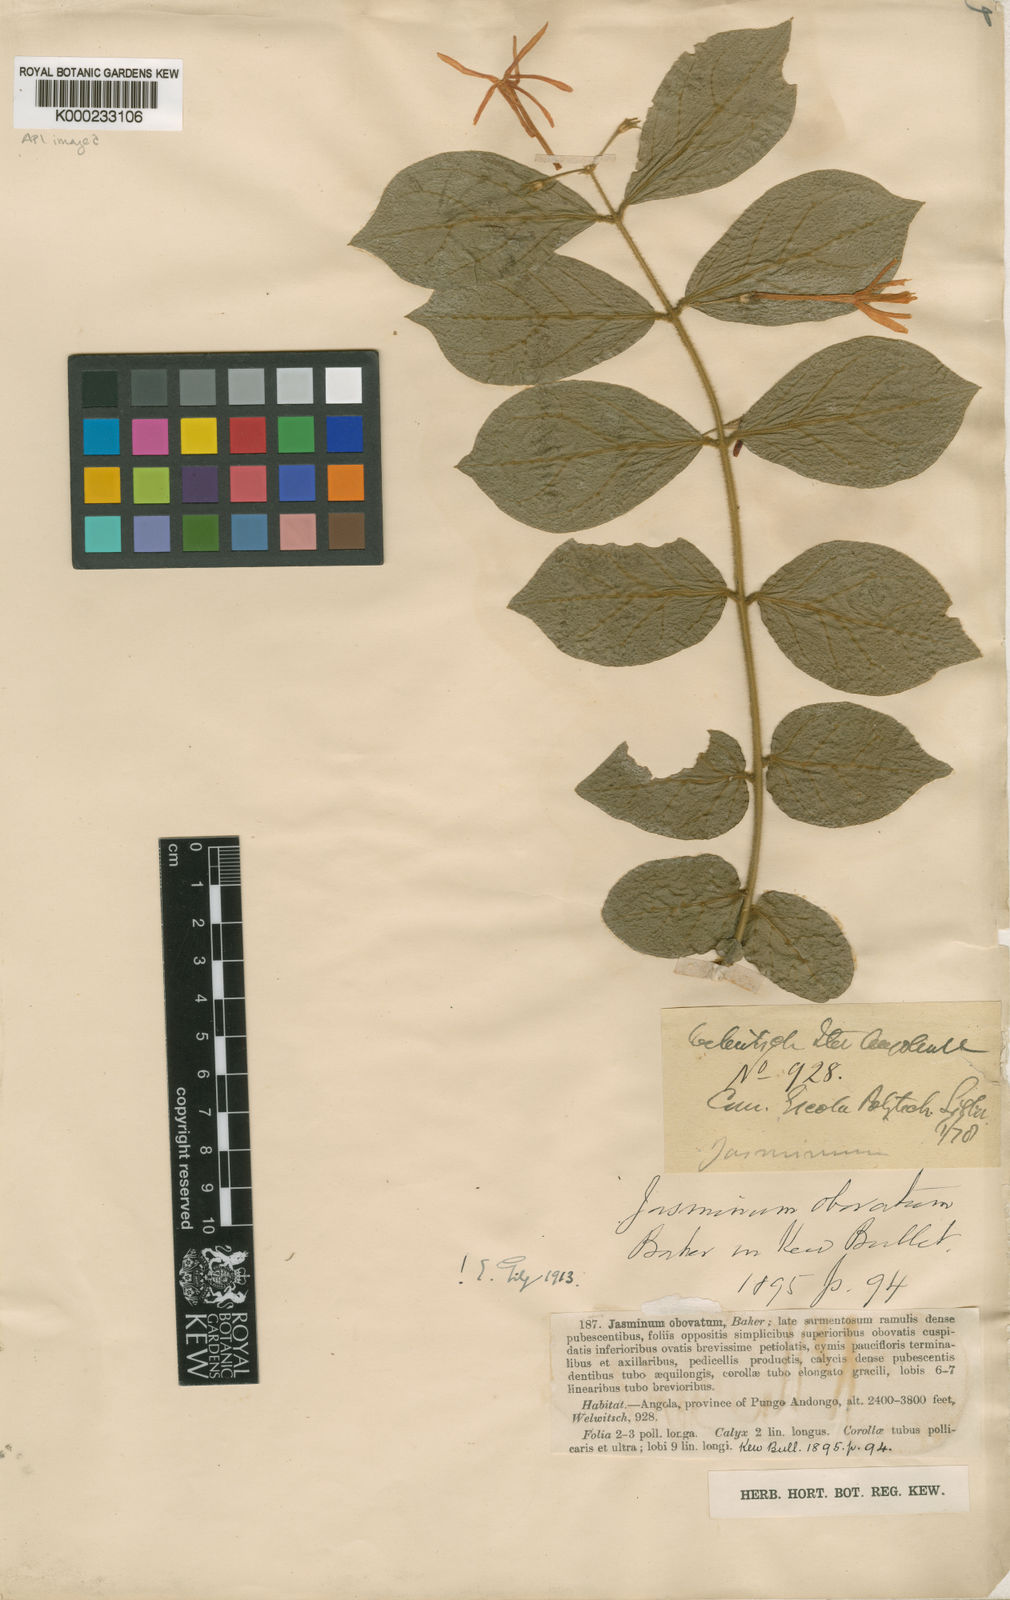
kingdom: Plantae
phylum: Tracheophyta
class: Magnoliopsida
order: Lamiales
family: Oleaceae
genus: Jasminum
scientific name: Jasminum pauciflorum
